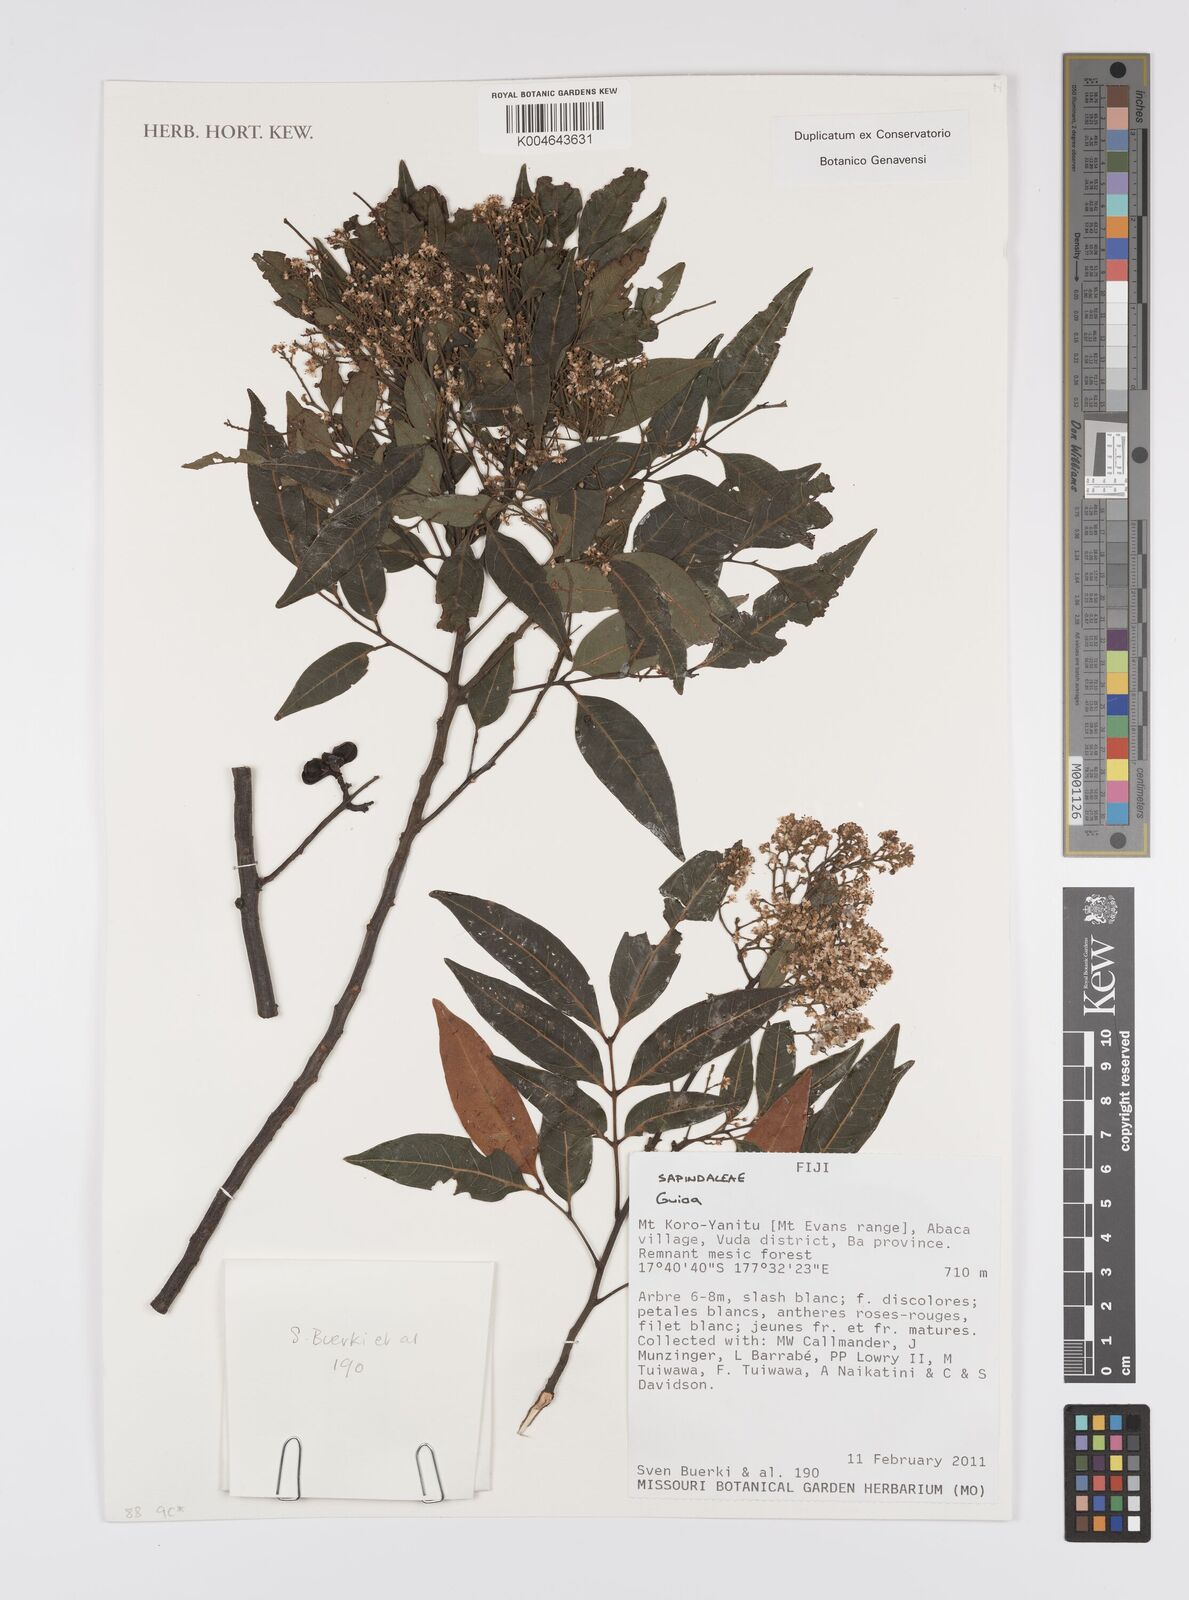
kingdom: Plantae
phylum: Tracheophyta
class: Magnoliopsida
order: Sapindales
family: Sapindaceae
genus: Guioa
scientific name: Guioa
